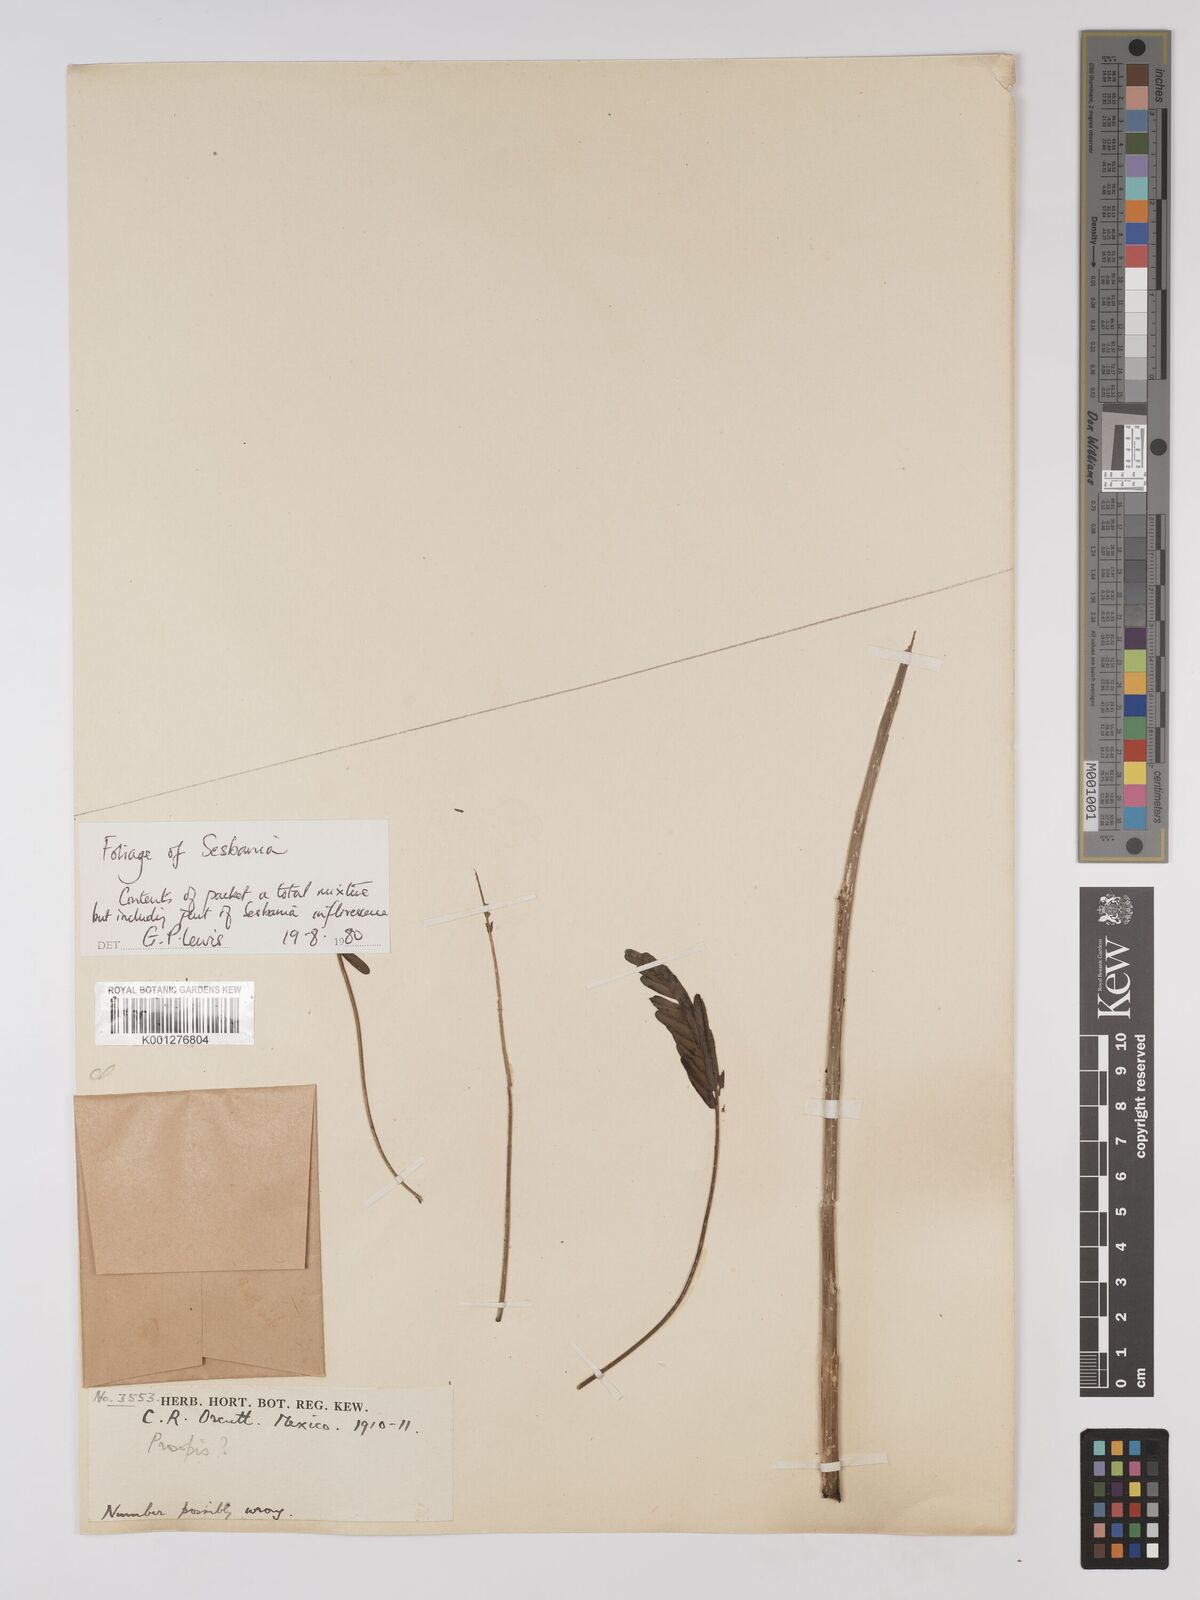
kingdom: Plantae
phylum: Tracheophyta
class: Magnoliopsida
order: Fabales
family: Fabaceae
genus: Sesbania
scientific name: Sesbania
